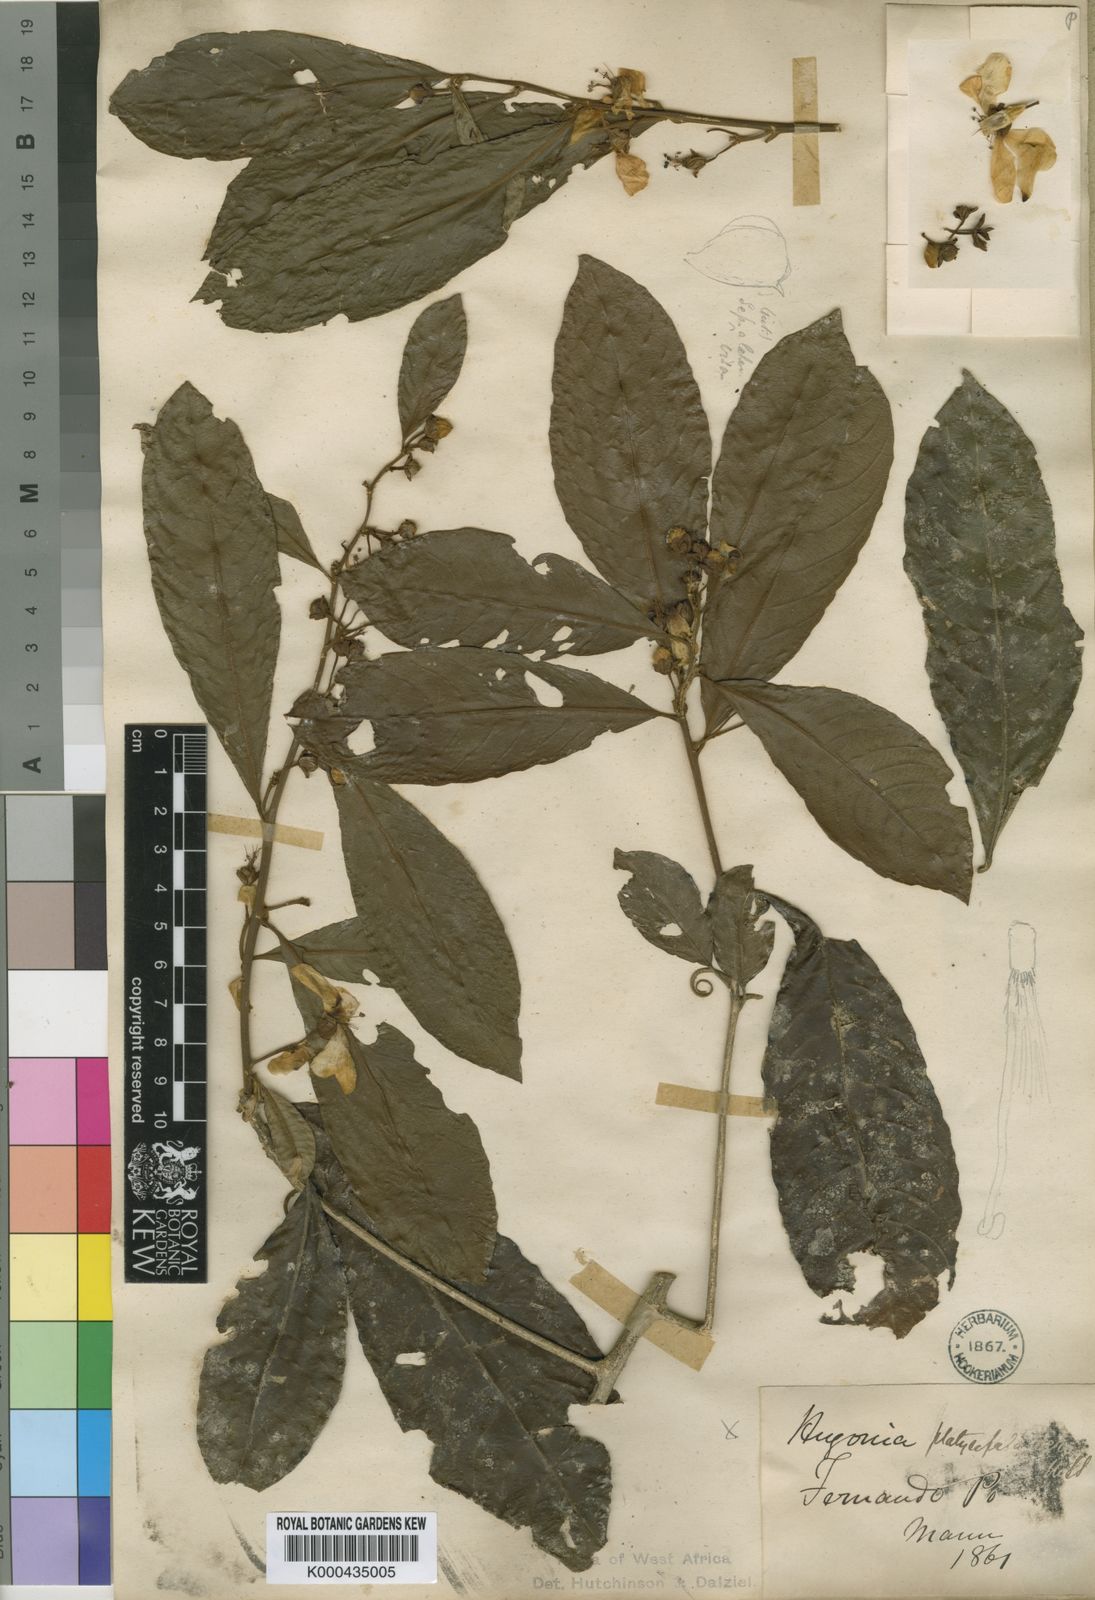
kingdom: Plantae
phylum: Tracheophyta
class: Magnoliopsida
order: Malpighiales
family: Linaceae
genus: Hugonia
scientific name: Hugonia platysepala
